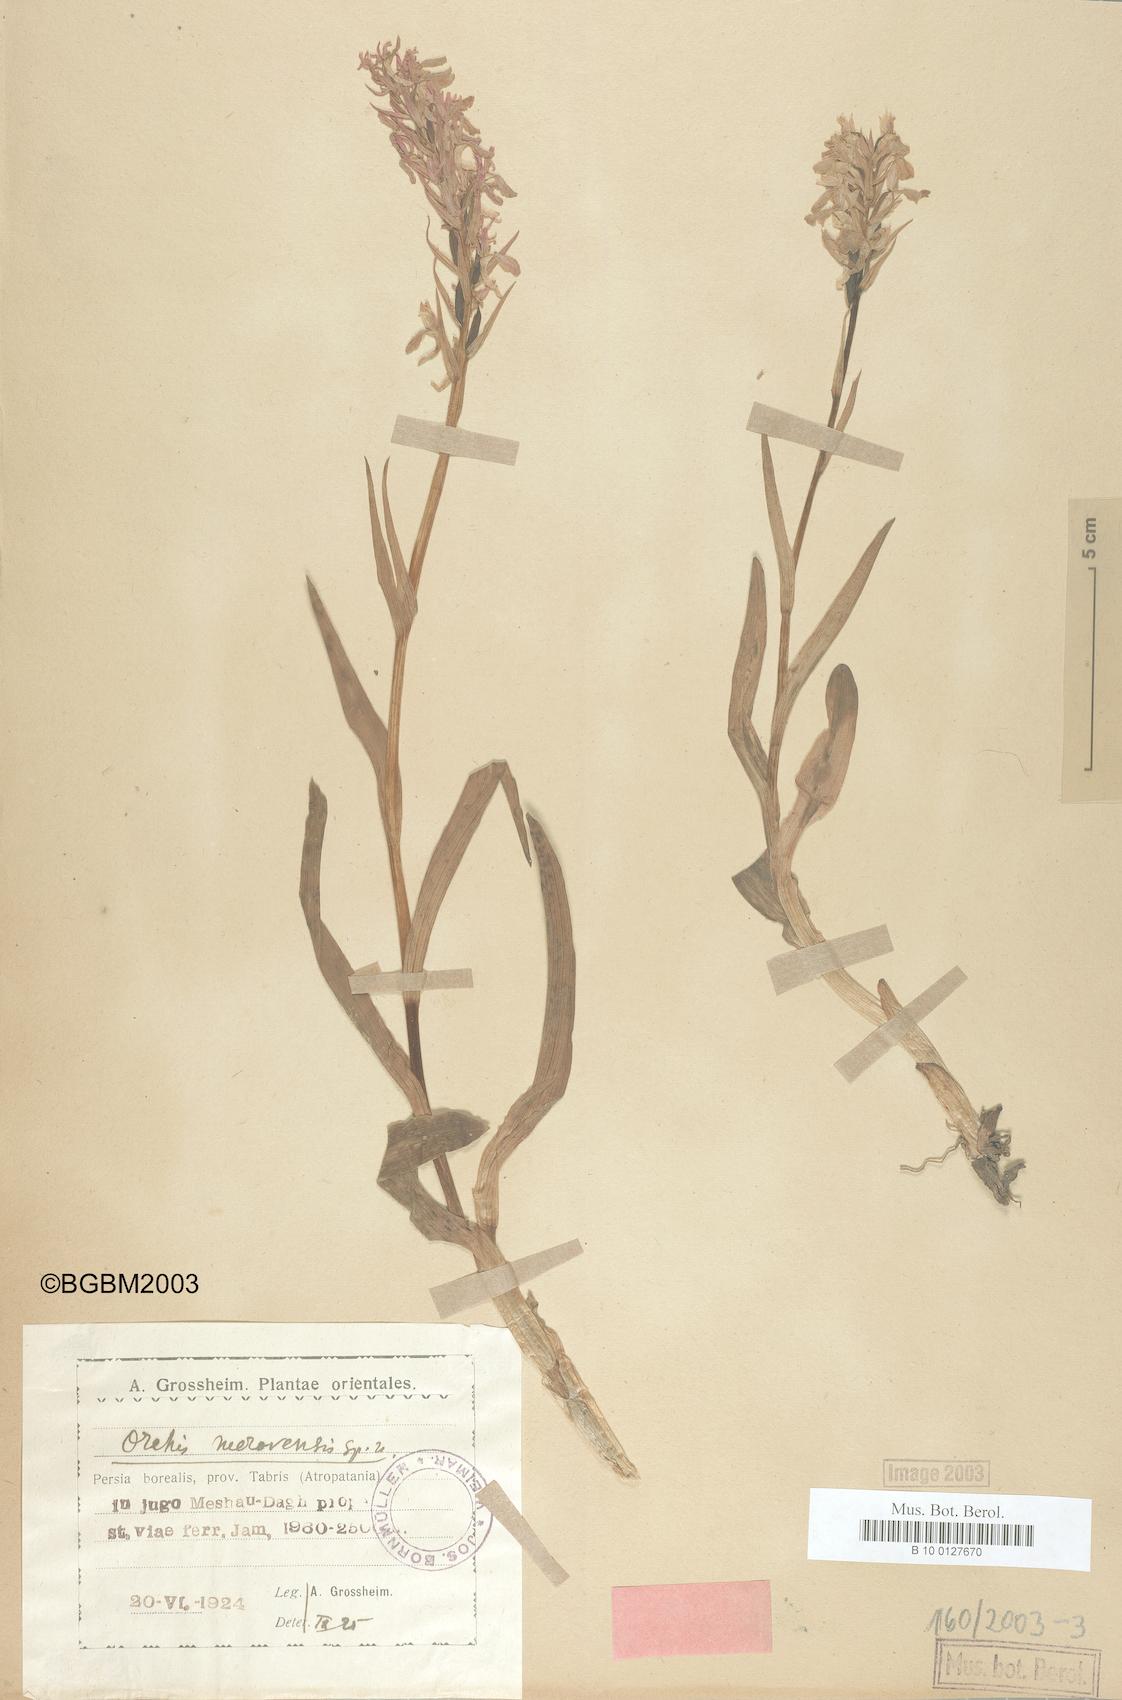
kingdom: Plantae
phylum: Tracheophyta
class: Liliopsida
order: Asparagales
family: Orchidaceae
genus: Dactylorhiza
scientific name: Dactylorhiza incarnata
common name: Early marsh-orchid
